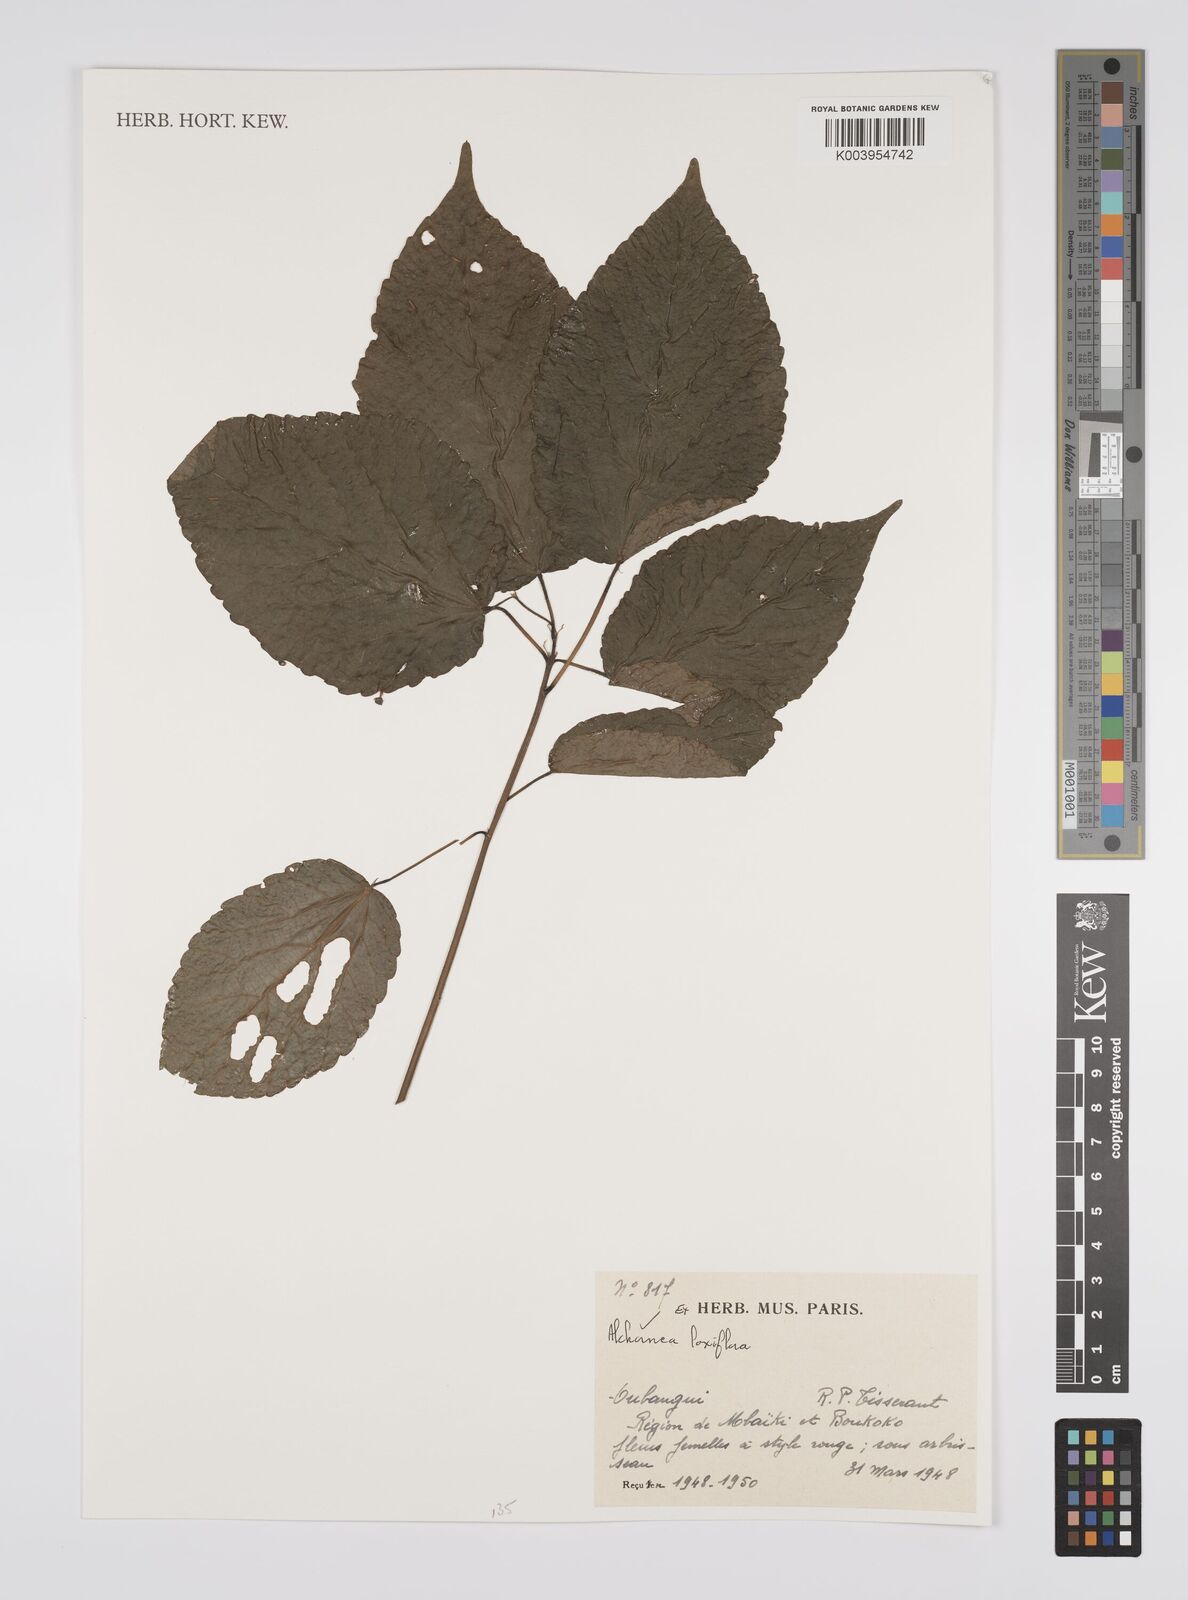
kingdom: Plantae
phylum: Tracheophyta
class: Magnoliopsida
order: Malpighiales
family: Euphorbiaceae
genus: Alchornea
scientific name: Alchornea laxiflora
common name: Lowveld bead-string
